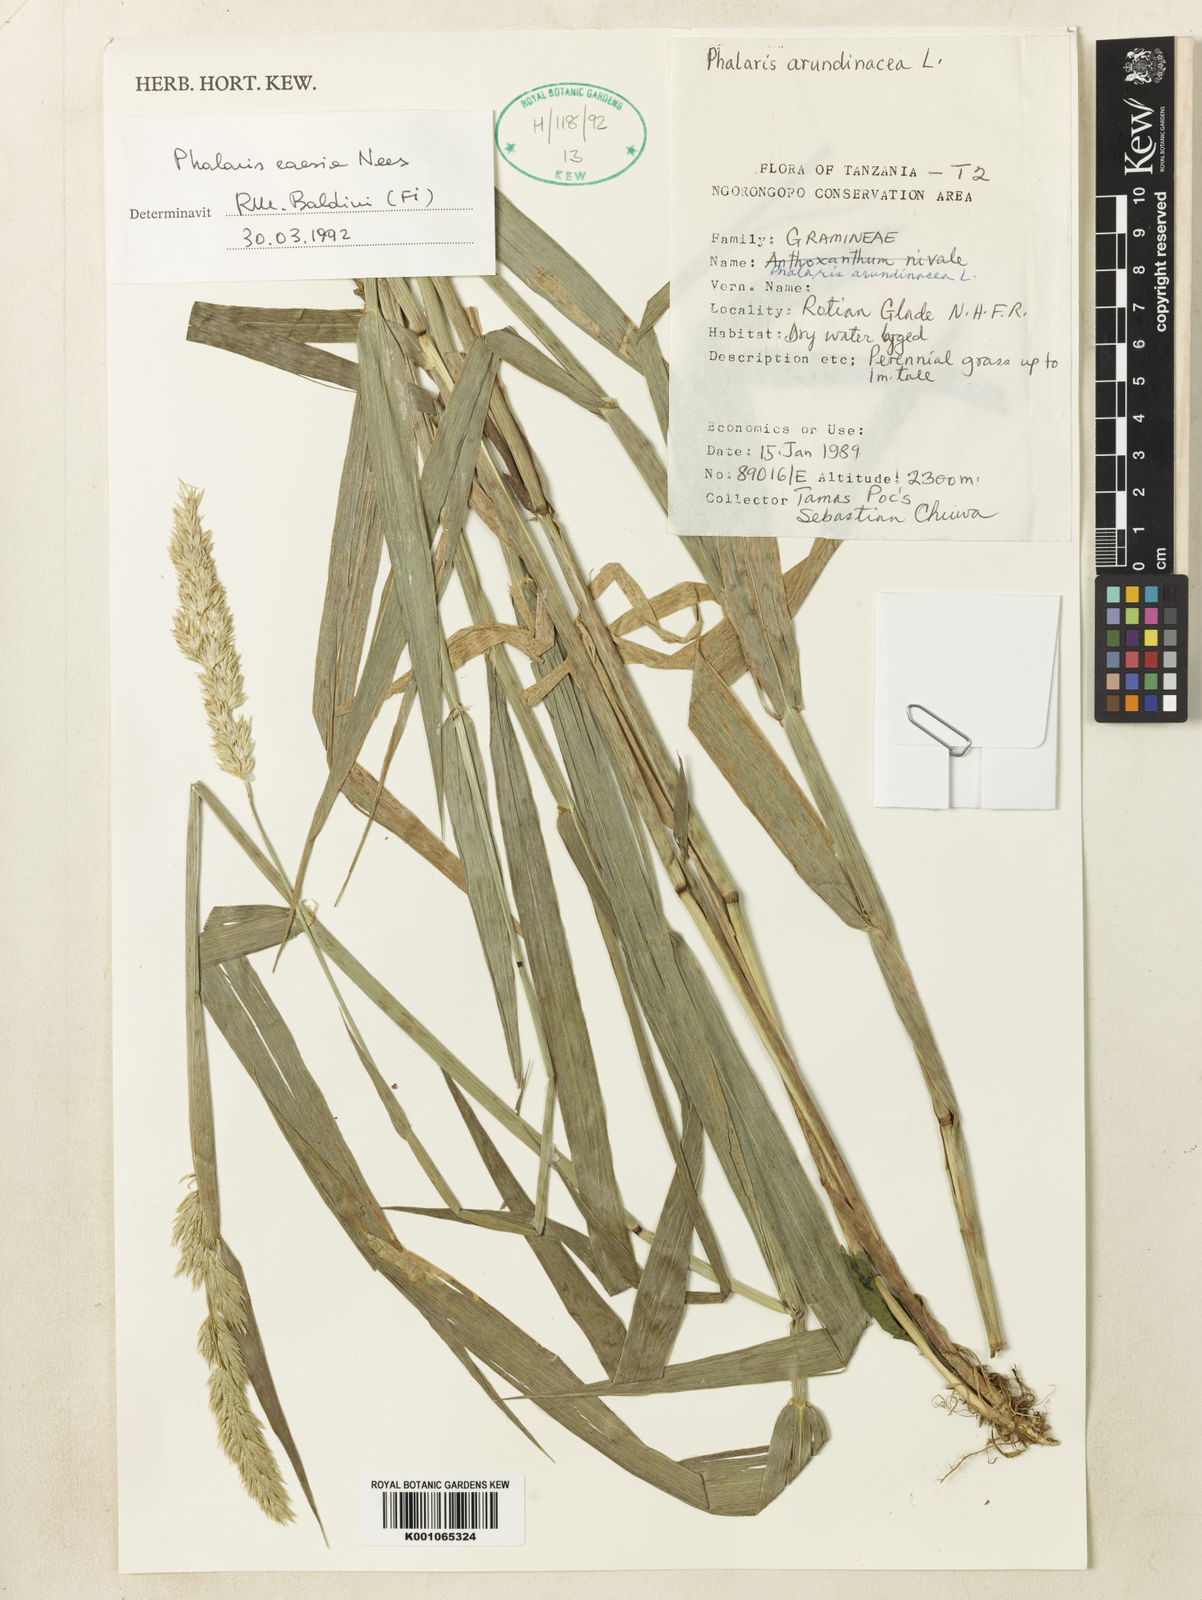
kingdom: Plantae
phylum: Tracheophyta
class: Liliopsida
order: Poales
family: Poaceae
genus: Phalaris
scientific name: Phalaris arundinacea
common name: Reed canary-grass
